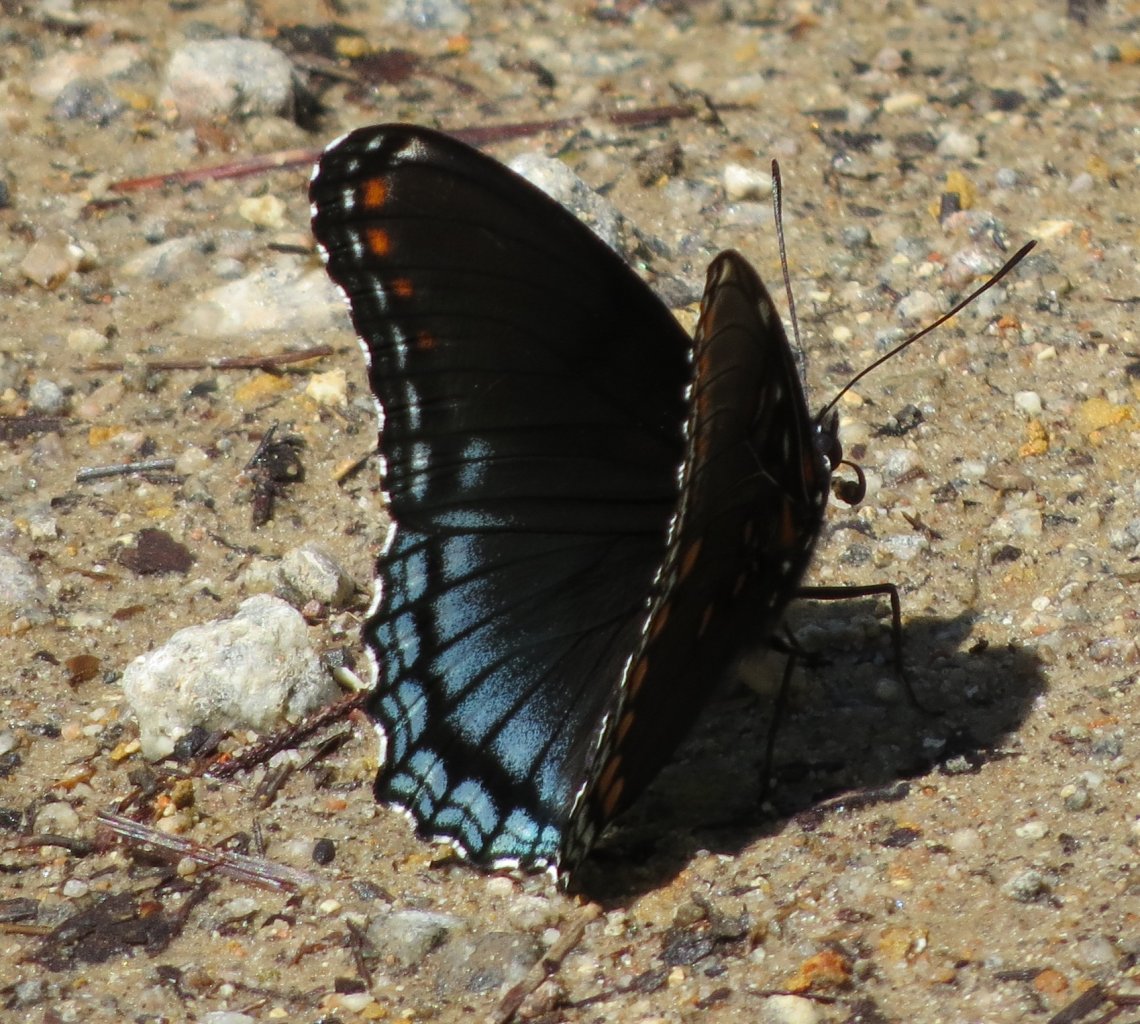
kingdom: Animalia
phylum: Arthropoda
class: Insecta
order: Lepidoptera
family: Nymphalidae
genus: Limenitis
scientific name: Limenitis astyanax
